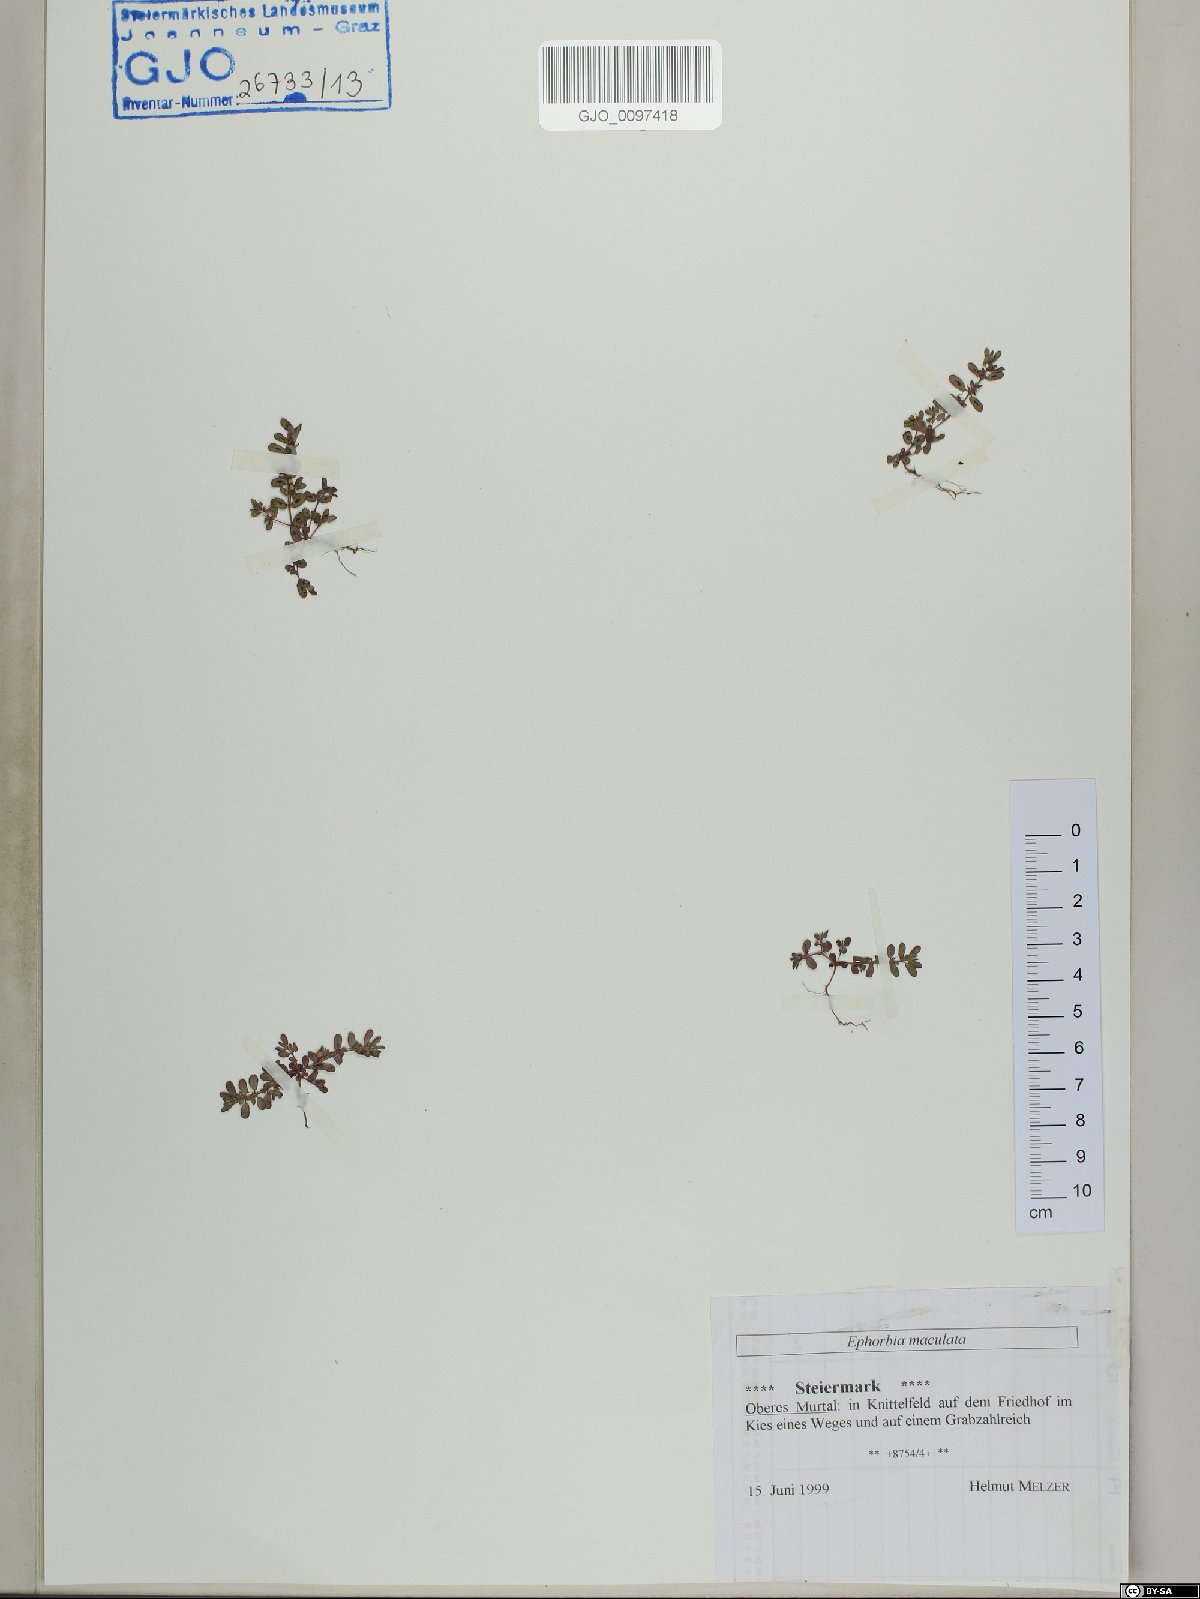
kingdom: Plantae
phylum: Tracheophyta
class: Magnoliopsida
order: Malpighiales
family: Euphorbiaceae
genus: Euphorbia
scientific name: Euphorbia maculata
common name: Spotted spurge
